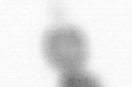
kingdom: Animalia
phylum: Arthropoda
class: Copepoda
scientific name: Copepoda
